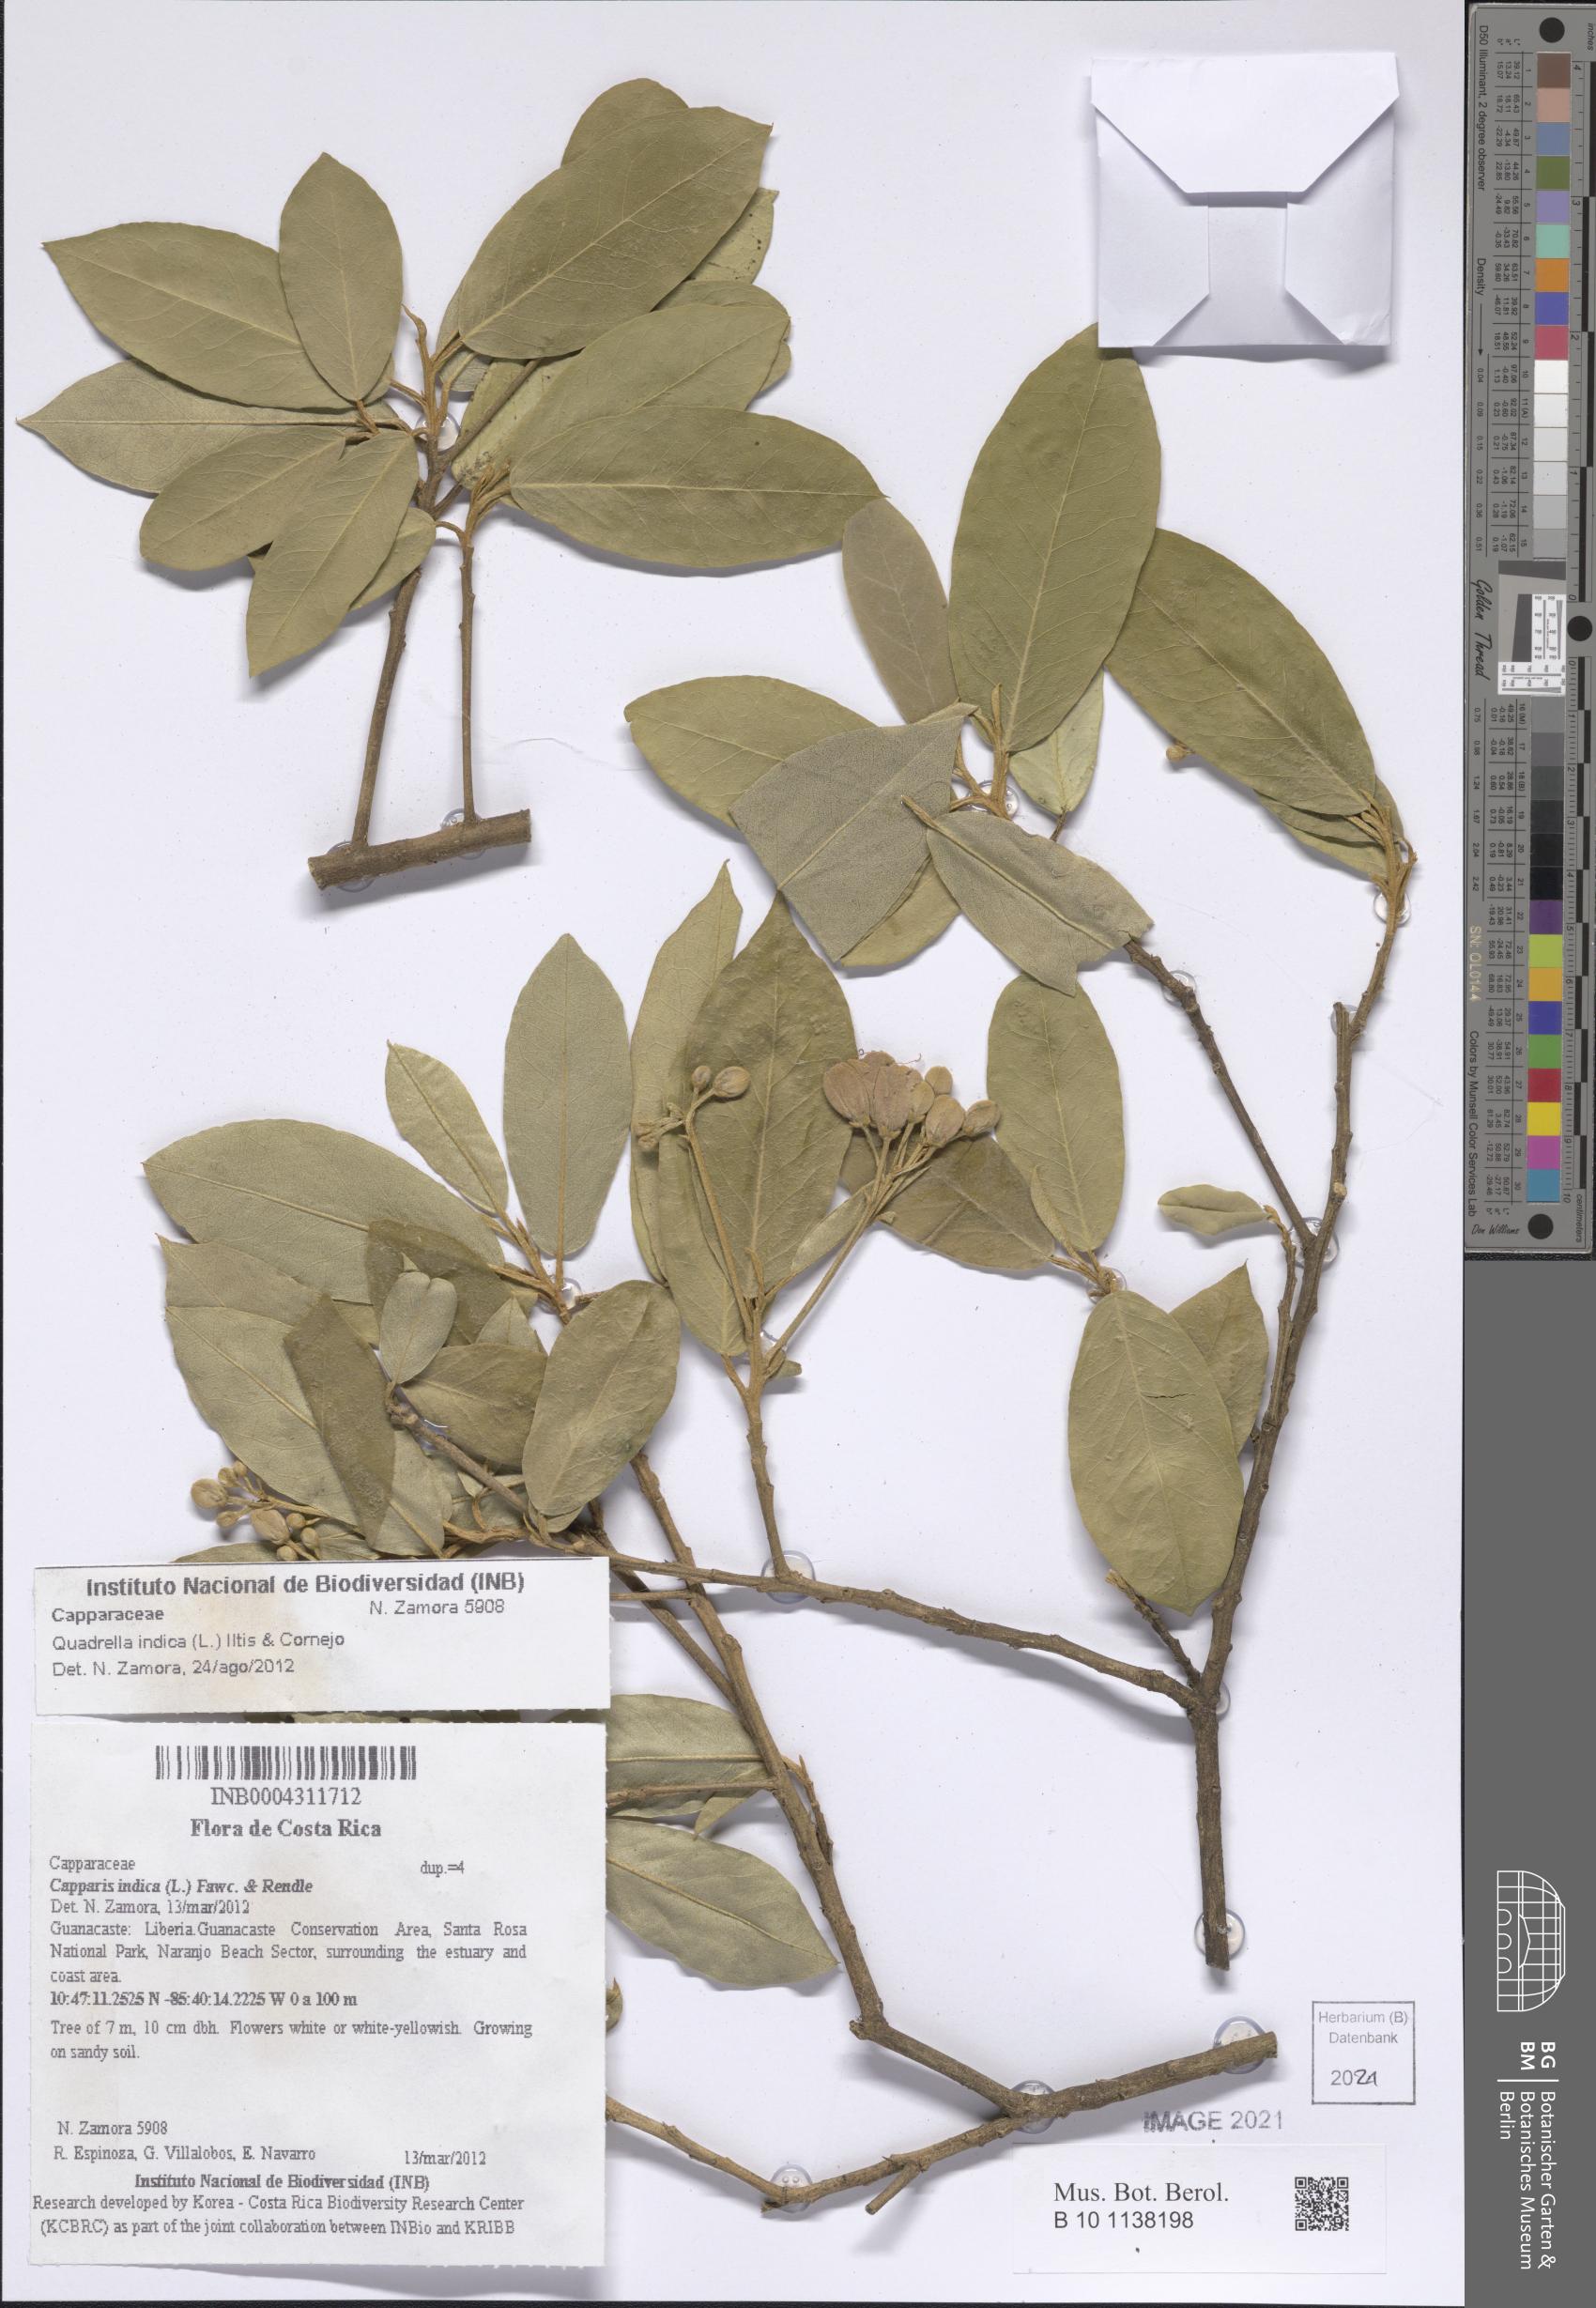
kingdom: Plantae
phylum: Tracheophyta
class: Magnoliopsida
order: Brassicales
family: Capparaceae
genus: Quadrella
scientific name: Quadrella indica
